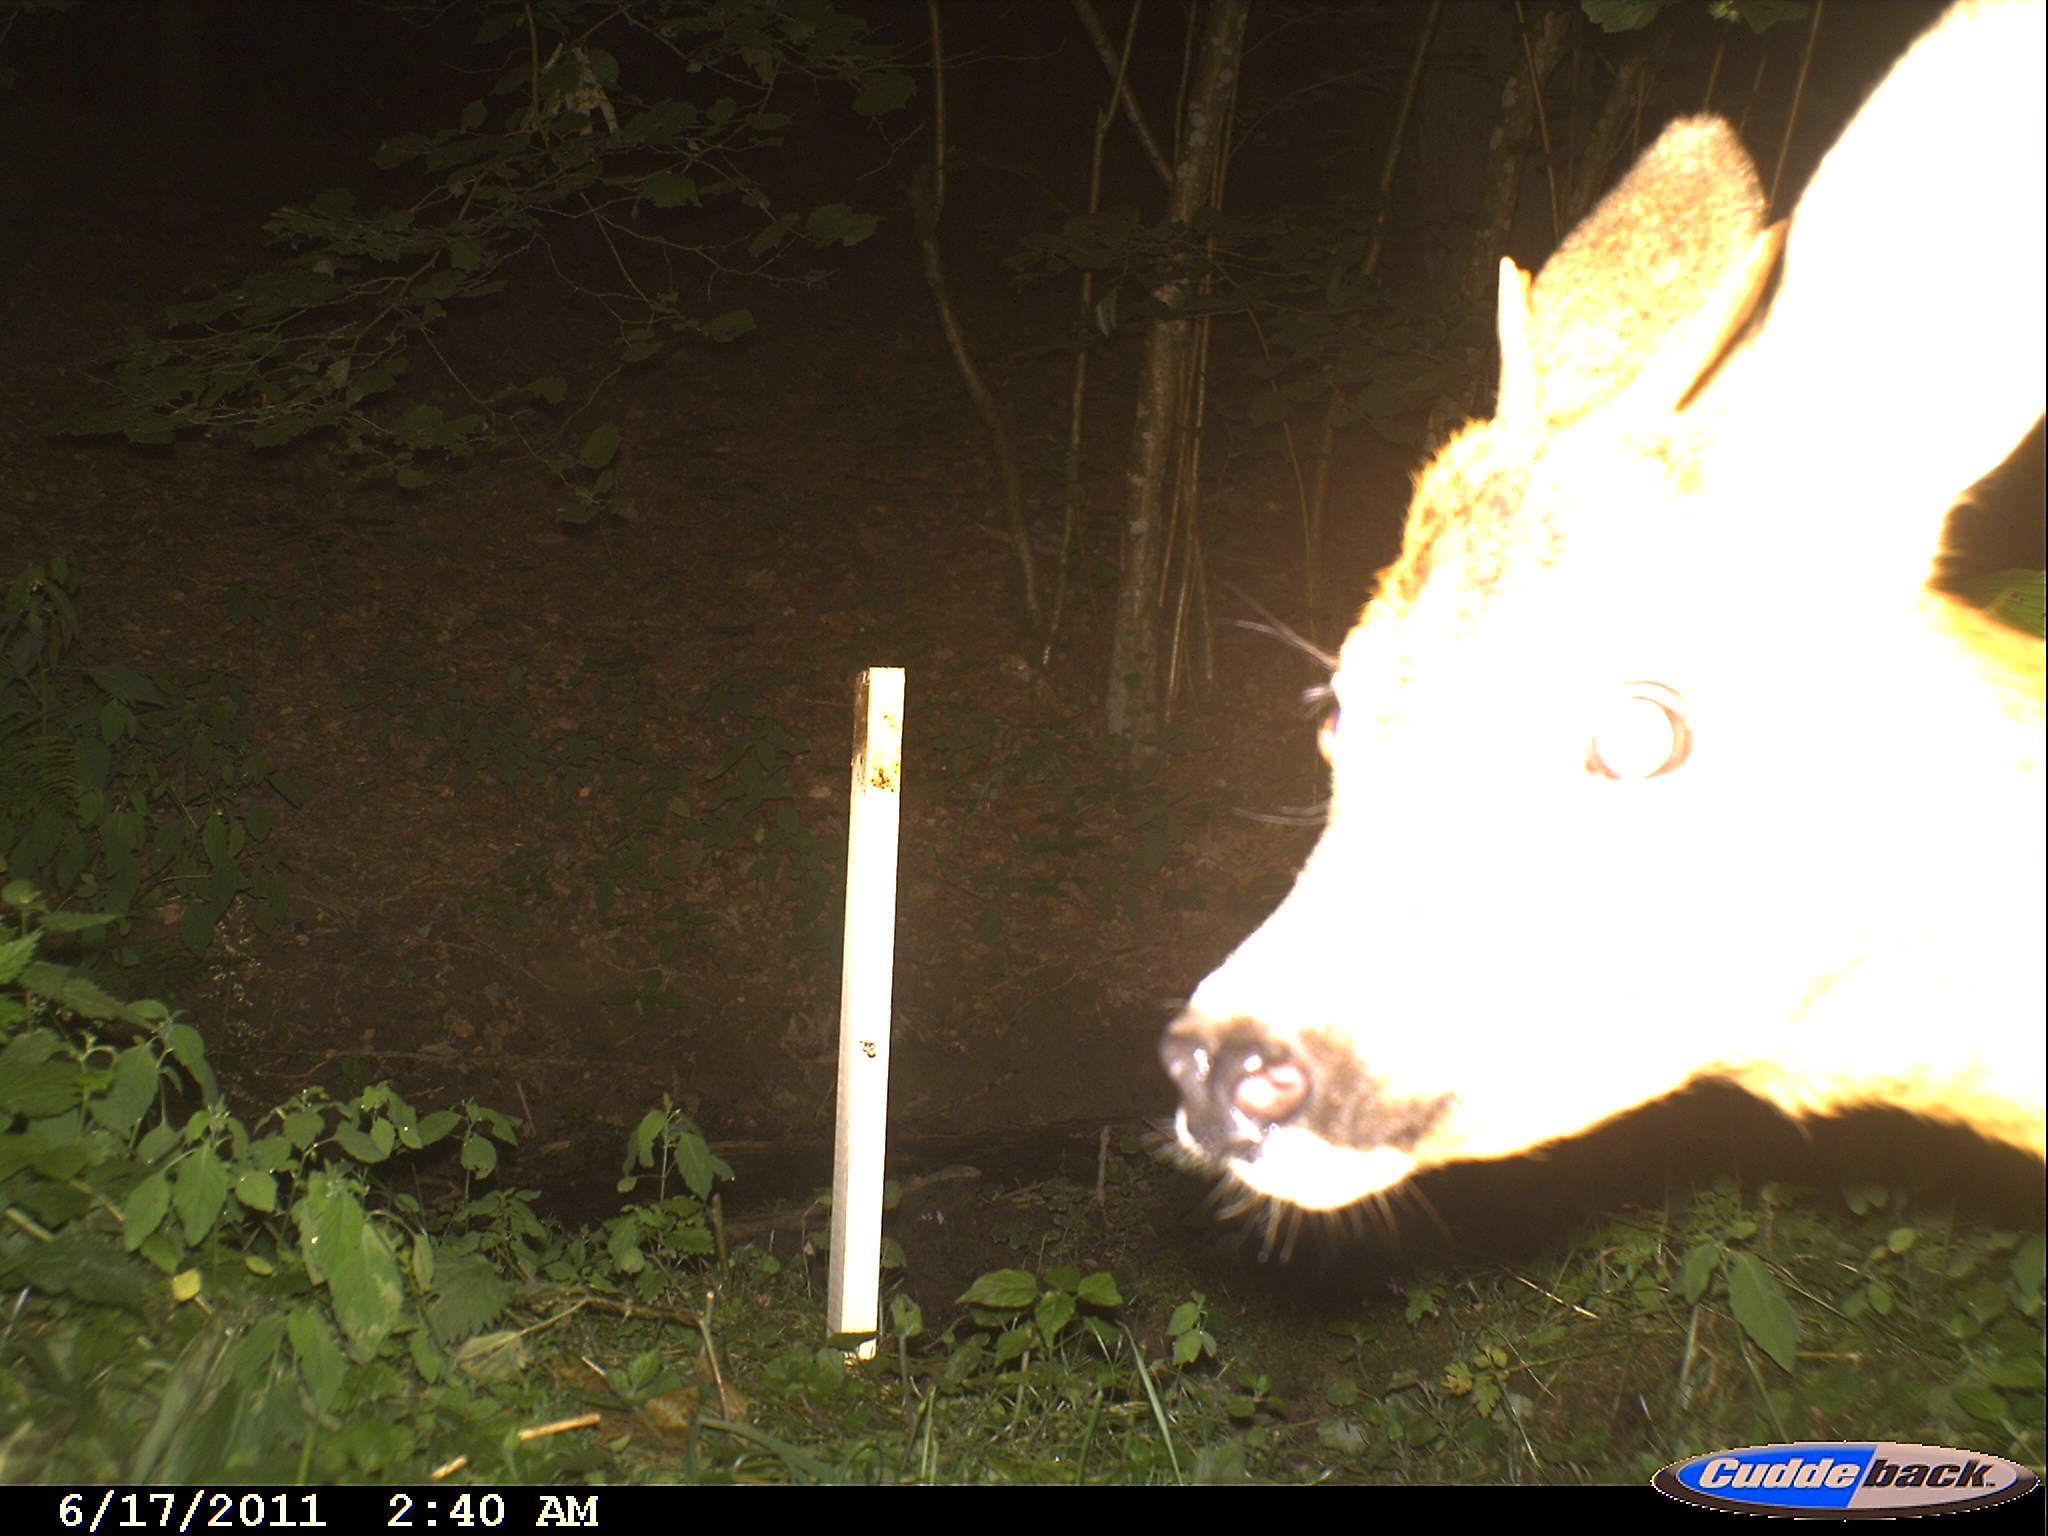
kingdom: Animalia
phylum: Chordata
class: Mammalia
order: Artiodactyla
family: Cervidae
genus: Capreolus
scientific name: Capreolus capreolus
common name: Western roe deer
